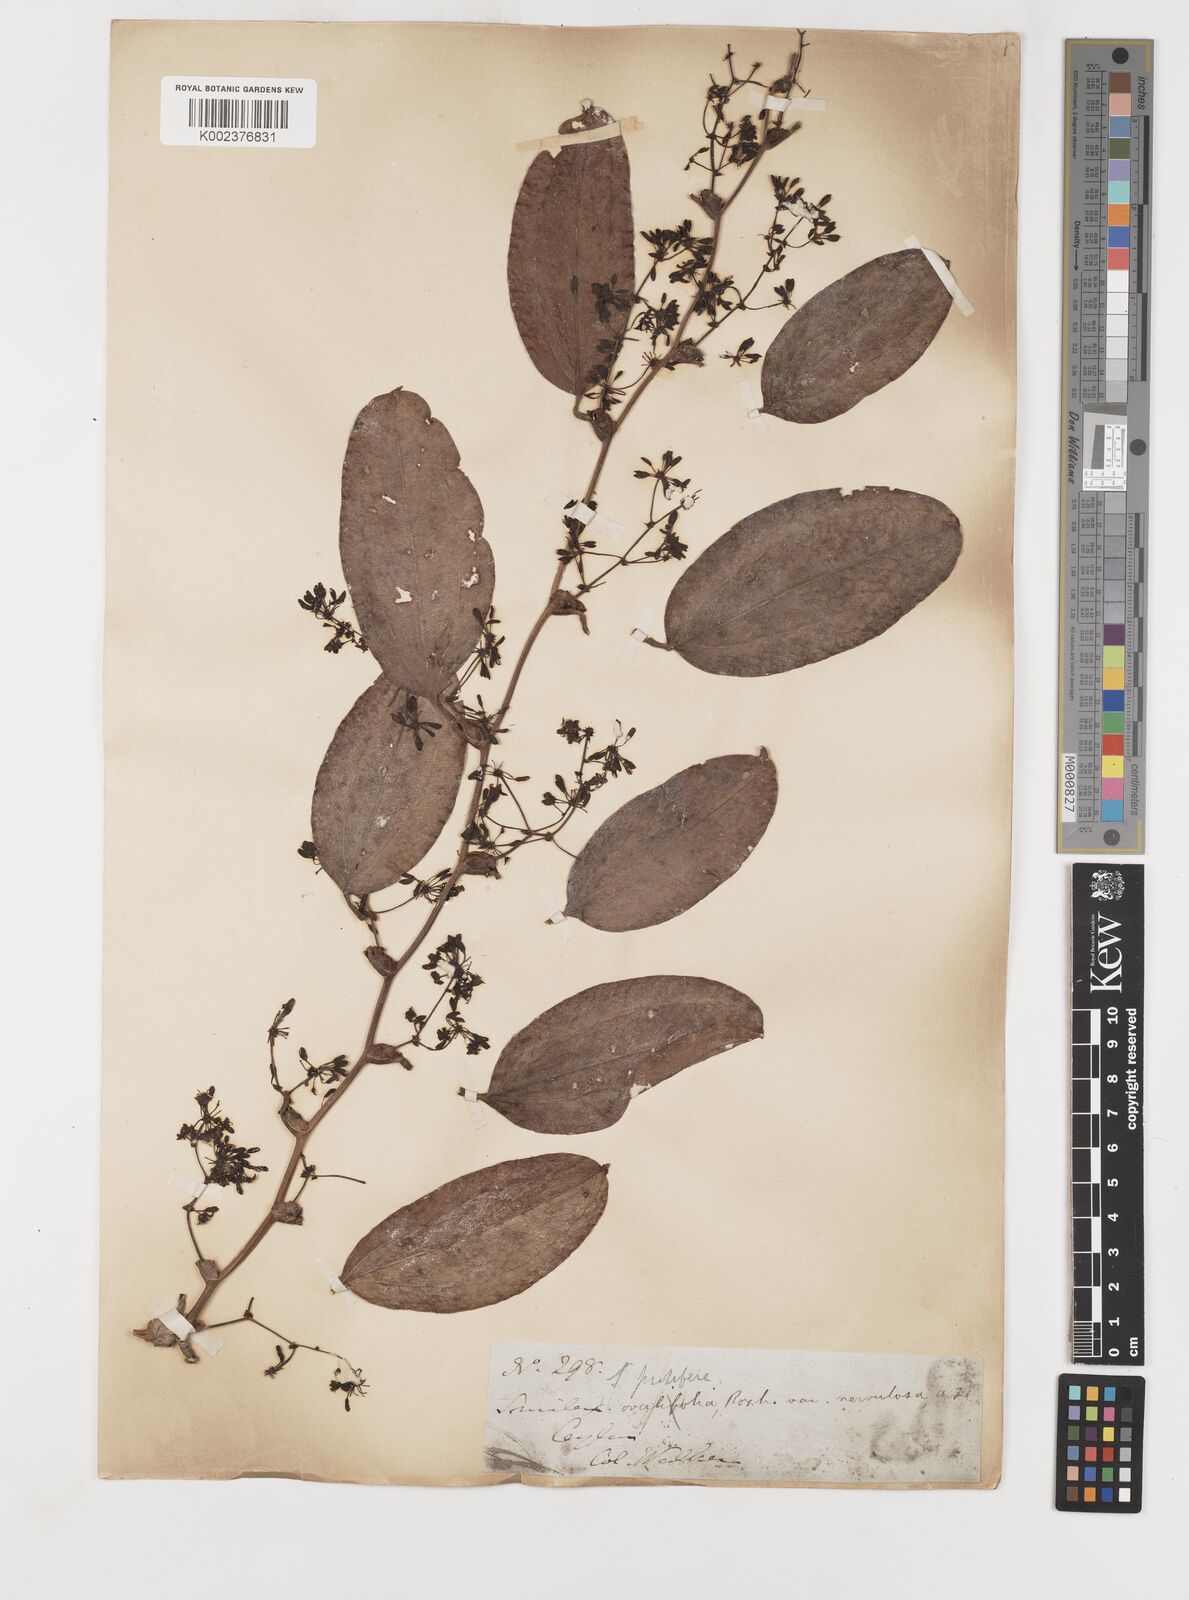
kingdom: Plantae
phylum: Tracheophyta
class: Liliopsida
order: Liliales
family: Smilacaceae
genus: Smilax
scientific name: Smilax prolifera
